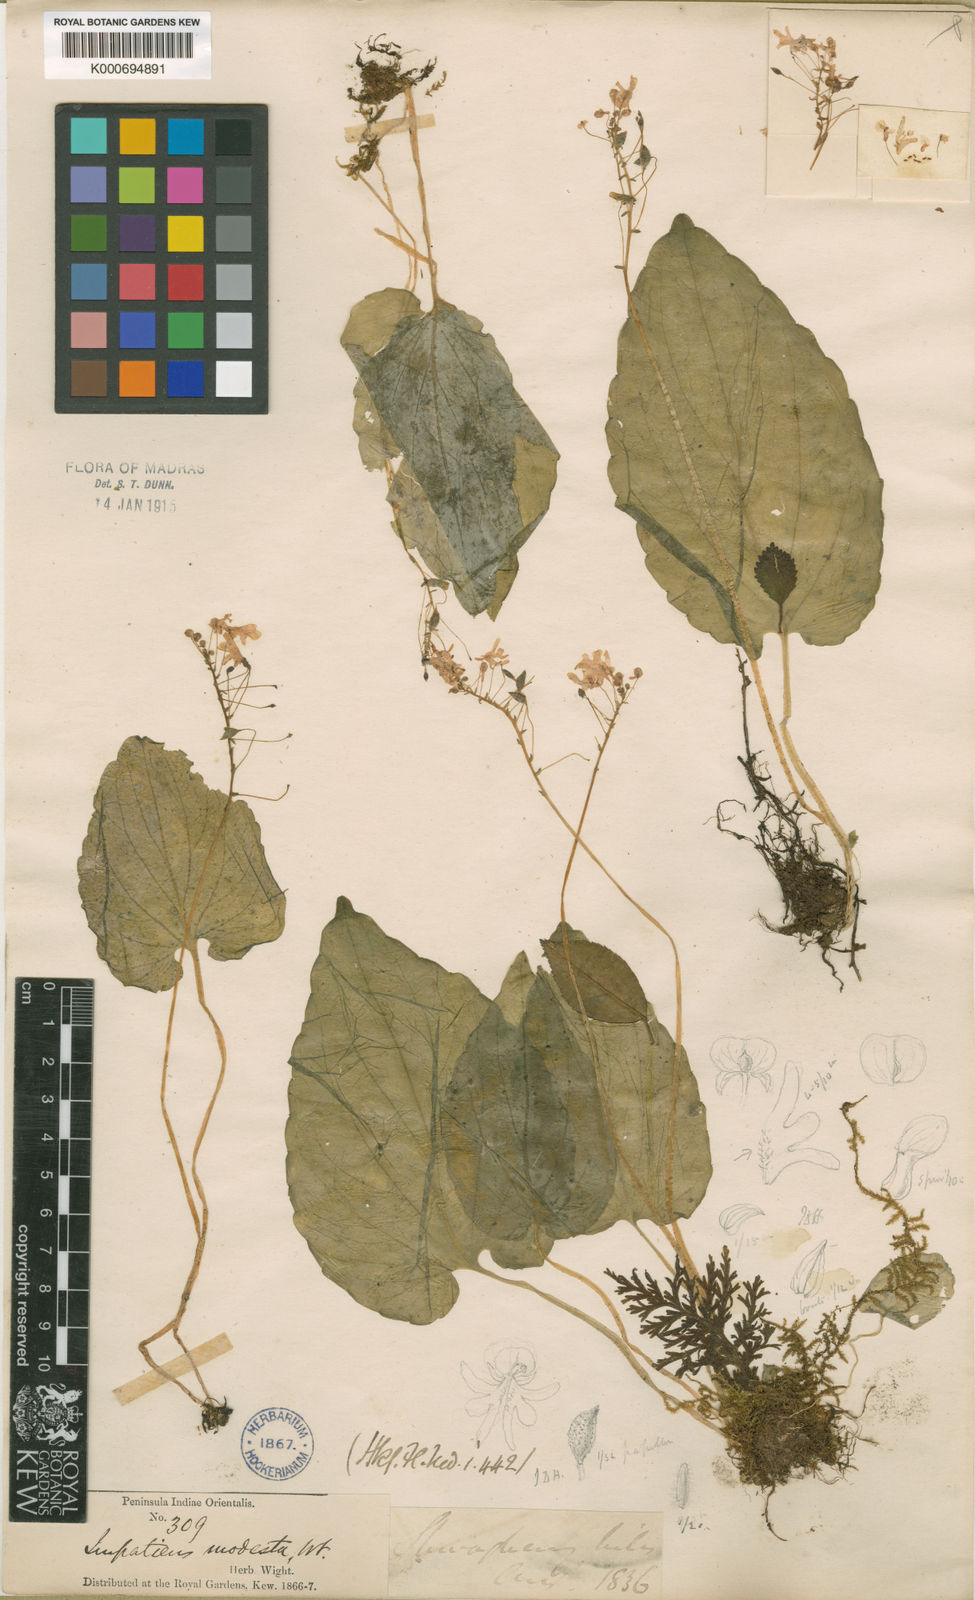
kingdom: Plantae
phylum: Tracheophyta
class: Magnoliopsida
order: Ericales
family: Balsaminaceae
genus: Impatiens
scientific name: Impatiens modesta
